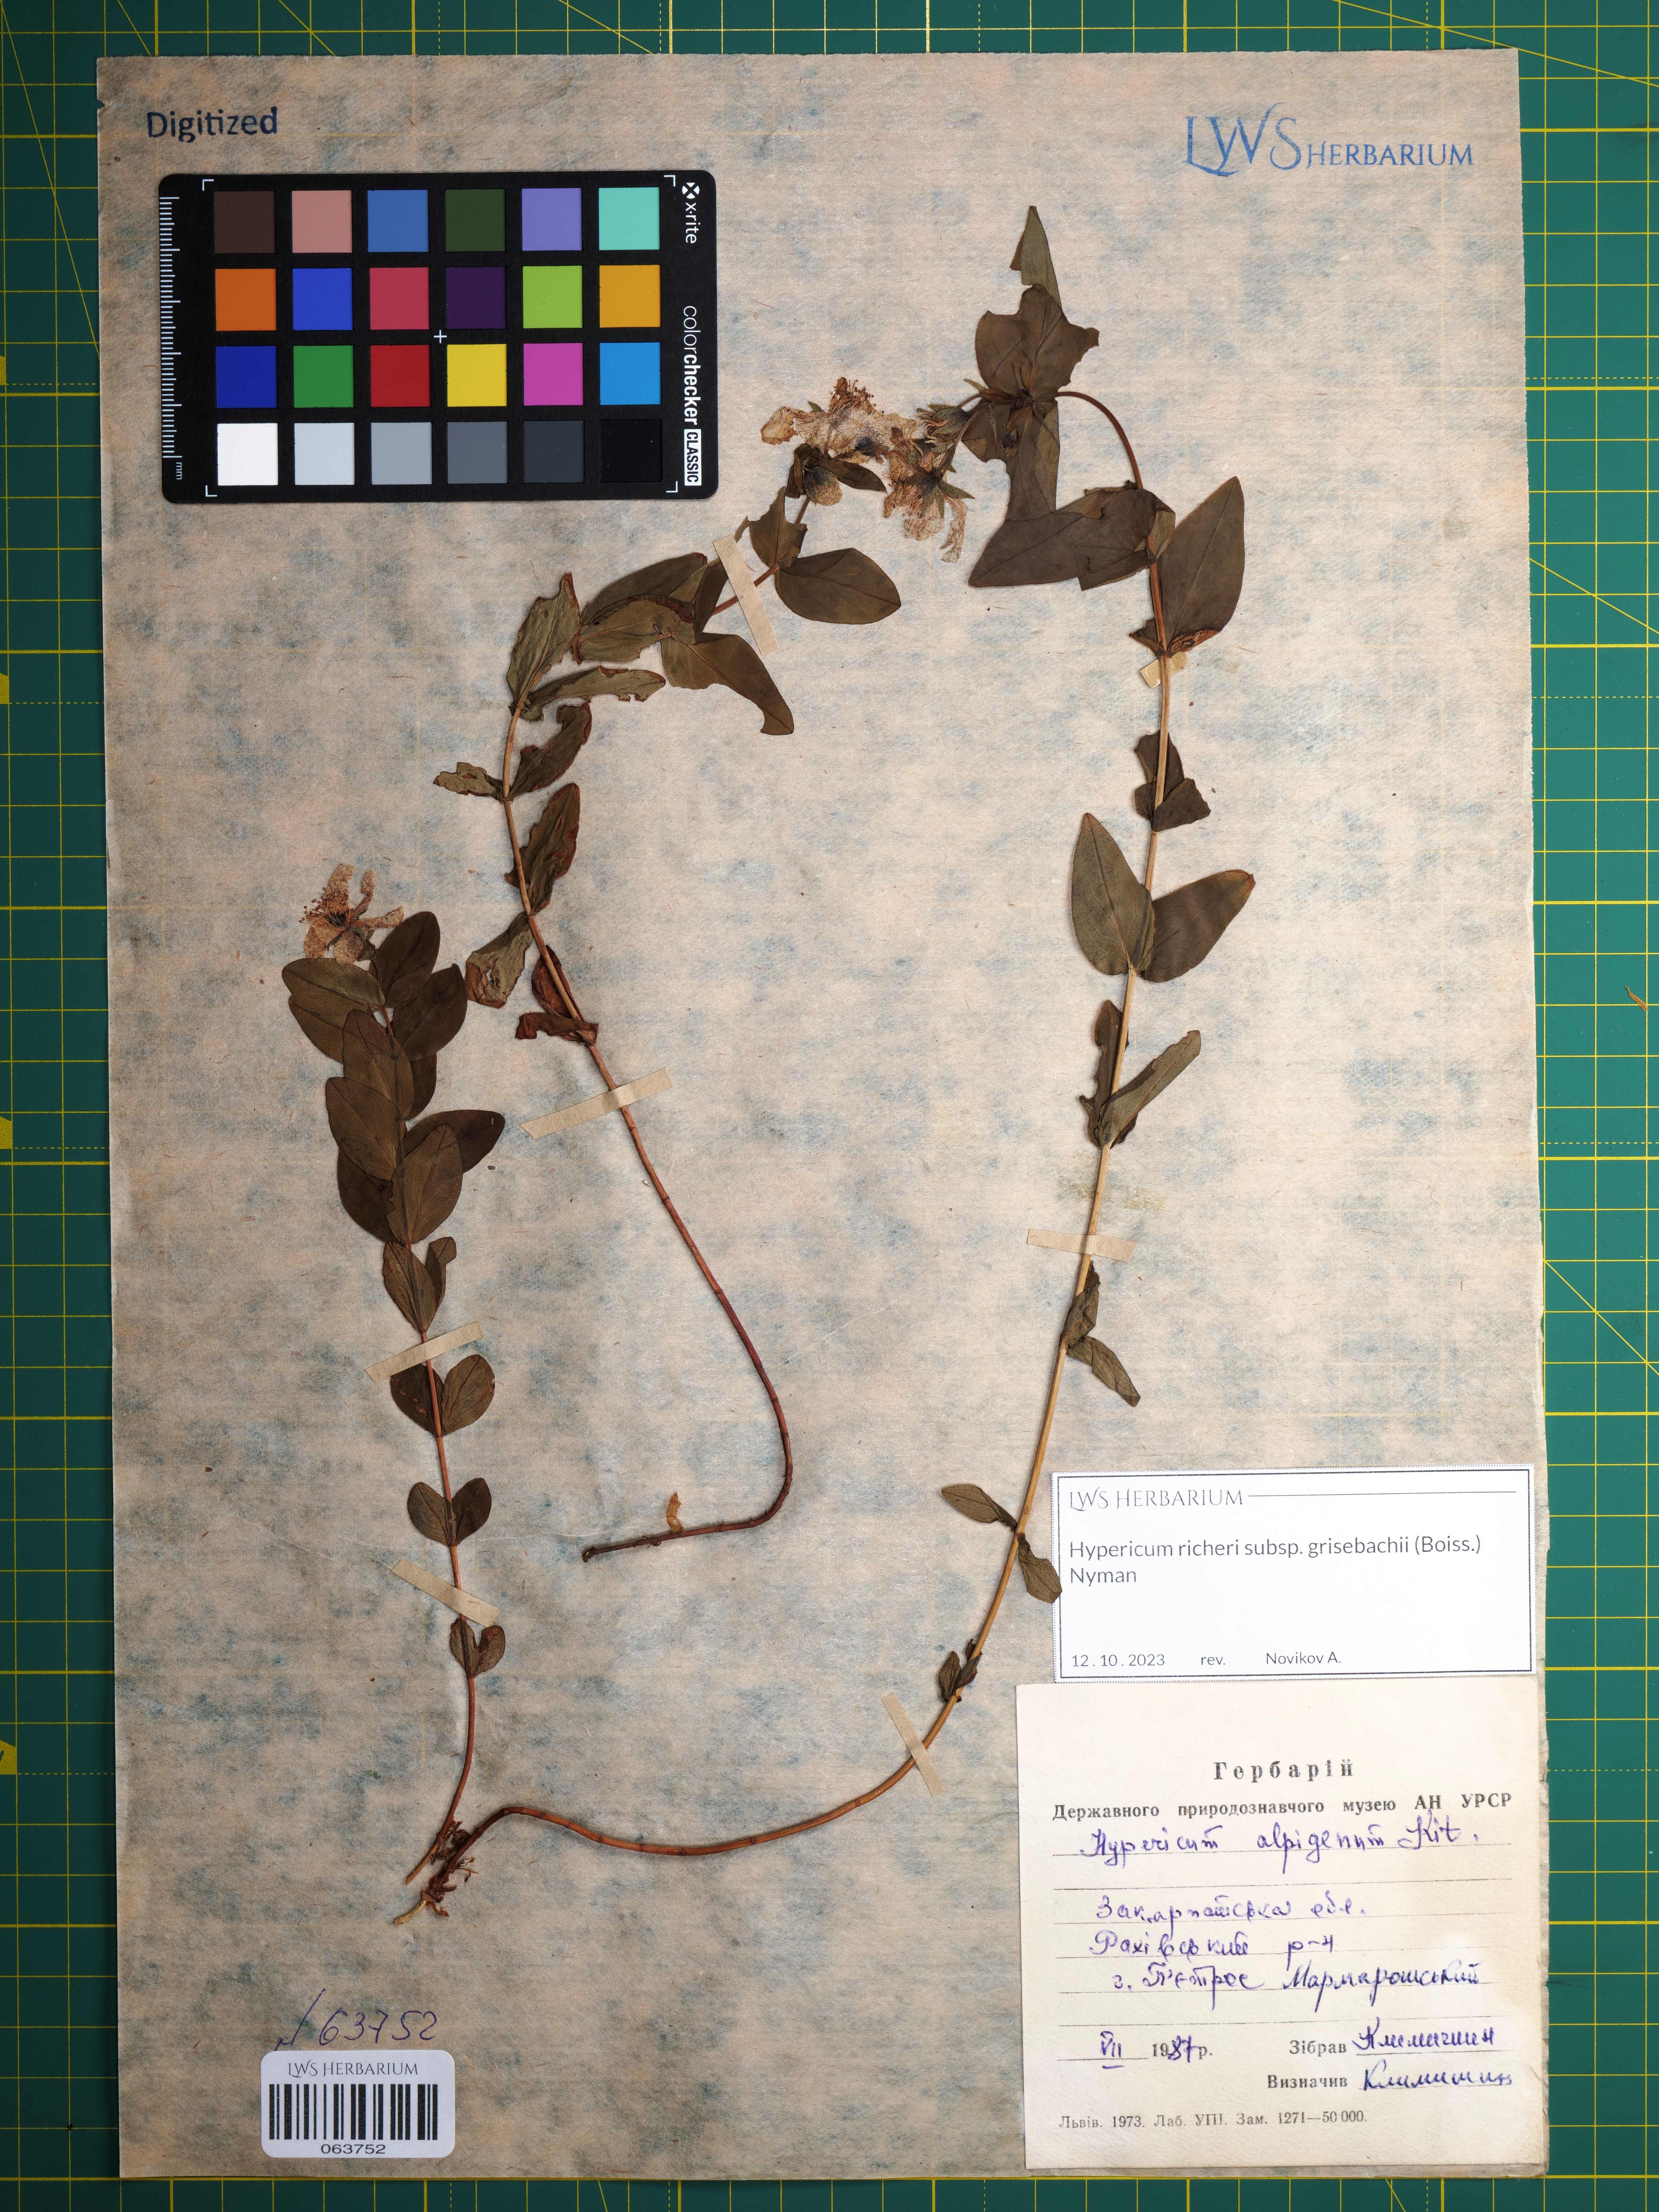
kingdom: Plantae
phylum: Tracheophyta
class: Magnoliopsida
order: Malpighiales
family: Hypericaceae
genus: Hypericum
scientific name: Hypericum richeri
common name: Alpine st john's-wort
